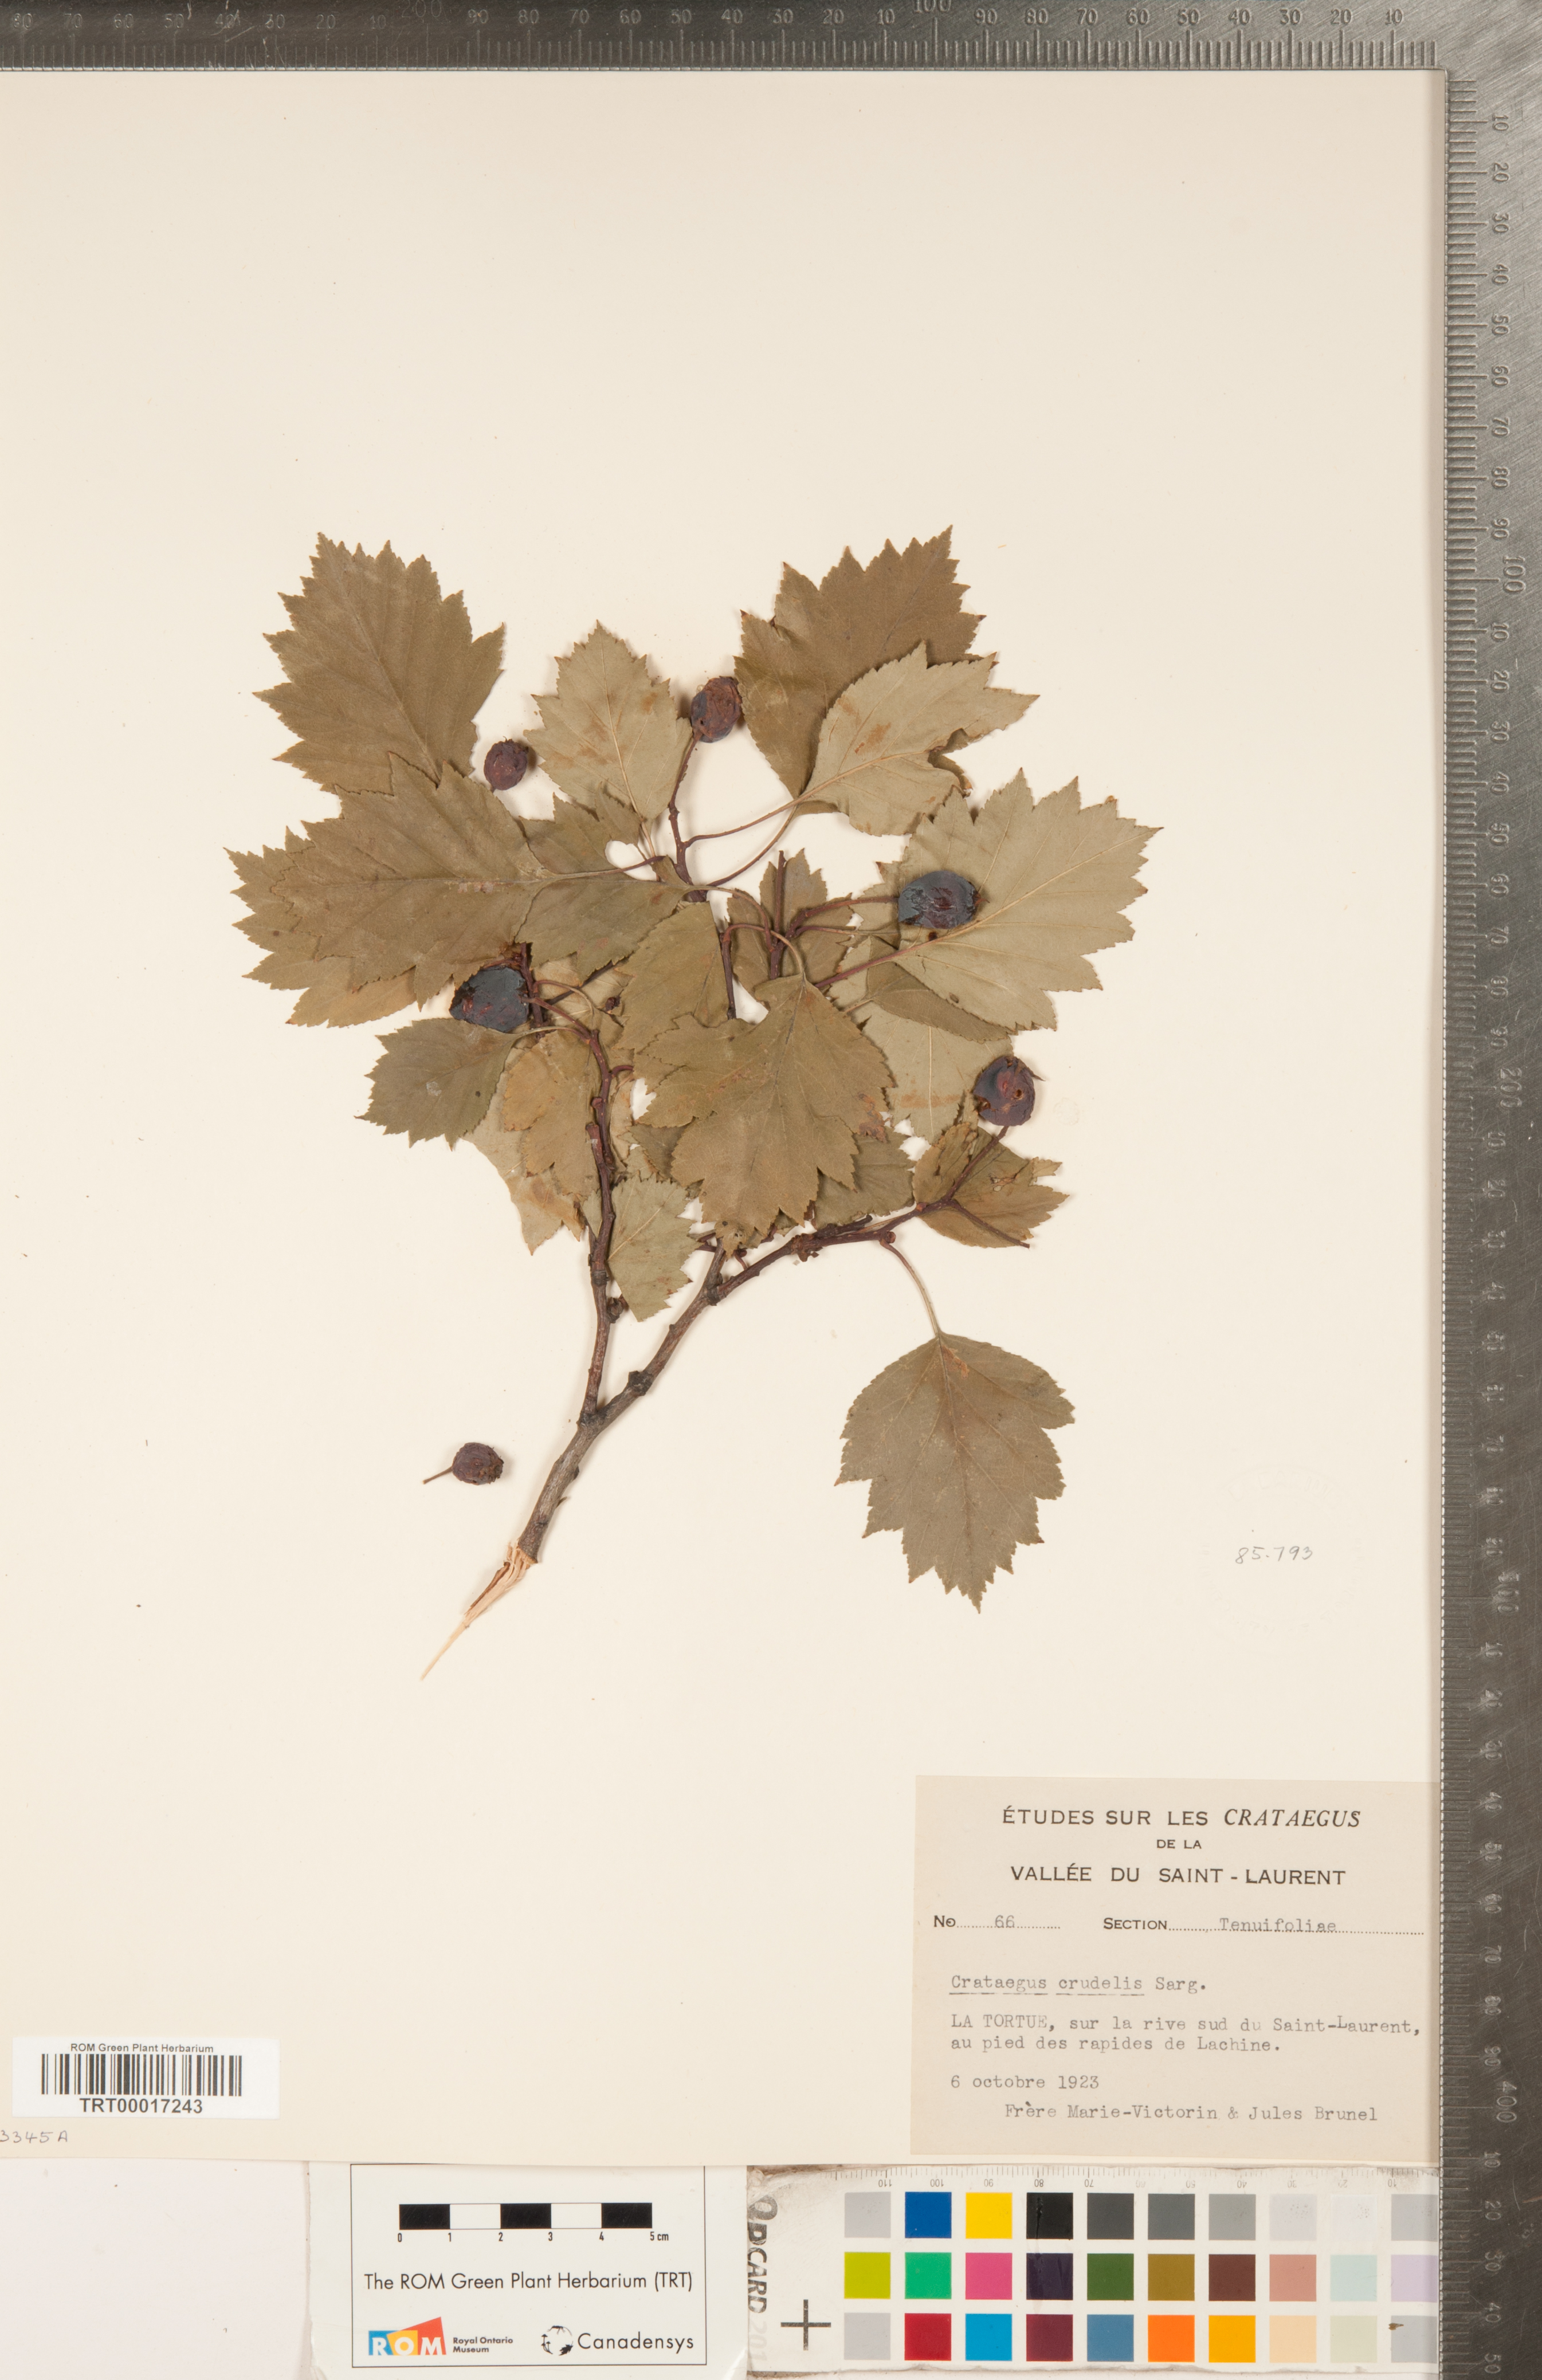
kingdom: Plantae
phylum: Tracheophyta
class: Magnoliopsida
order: Rosales
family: Rosaceae
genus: Crataegus
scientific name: Crataegus flabellata
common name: Bosc's hawthorn
